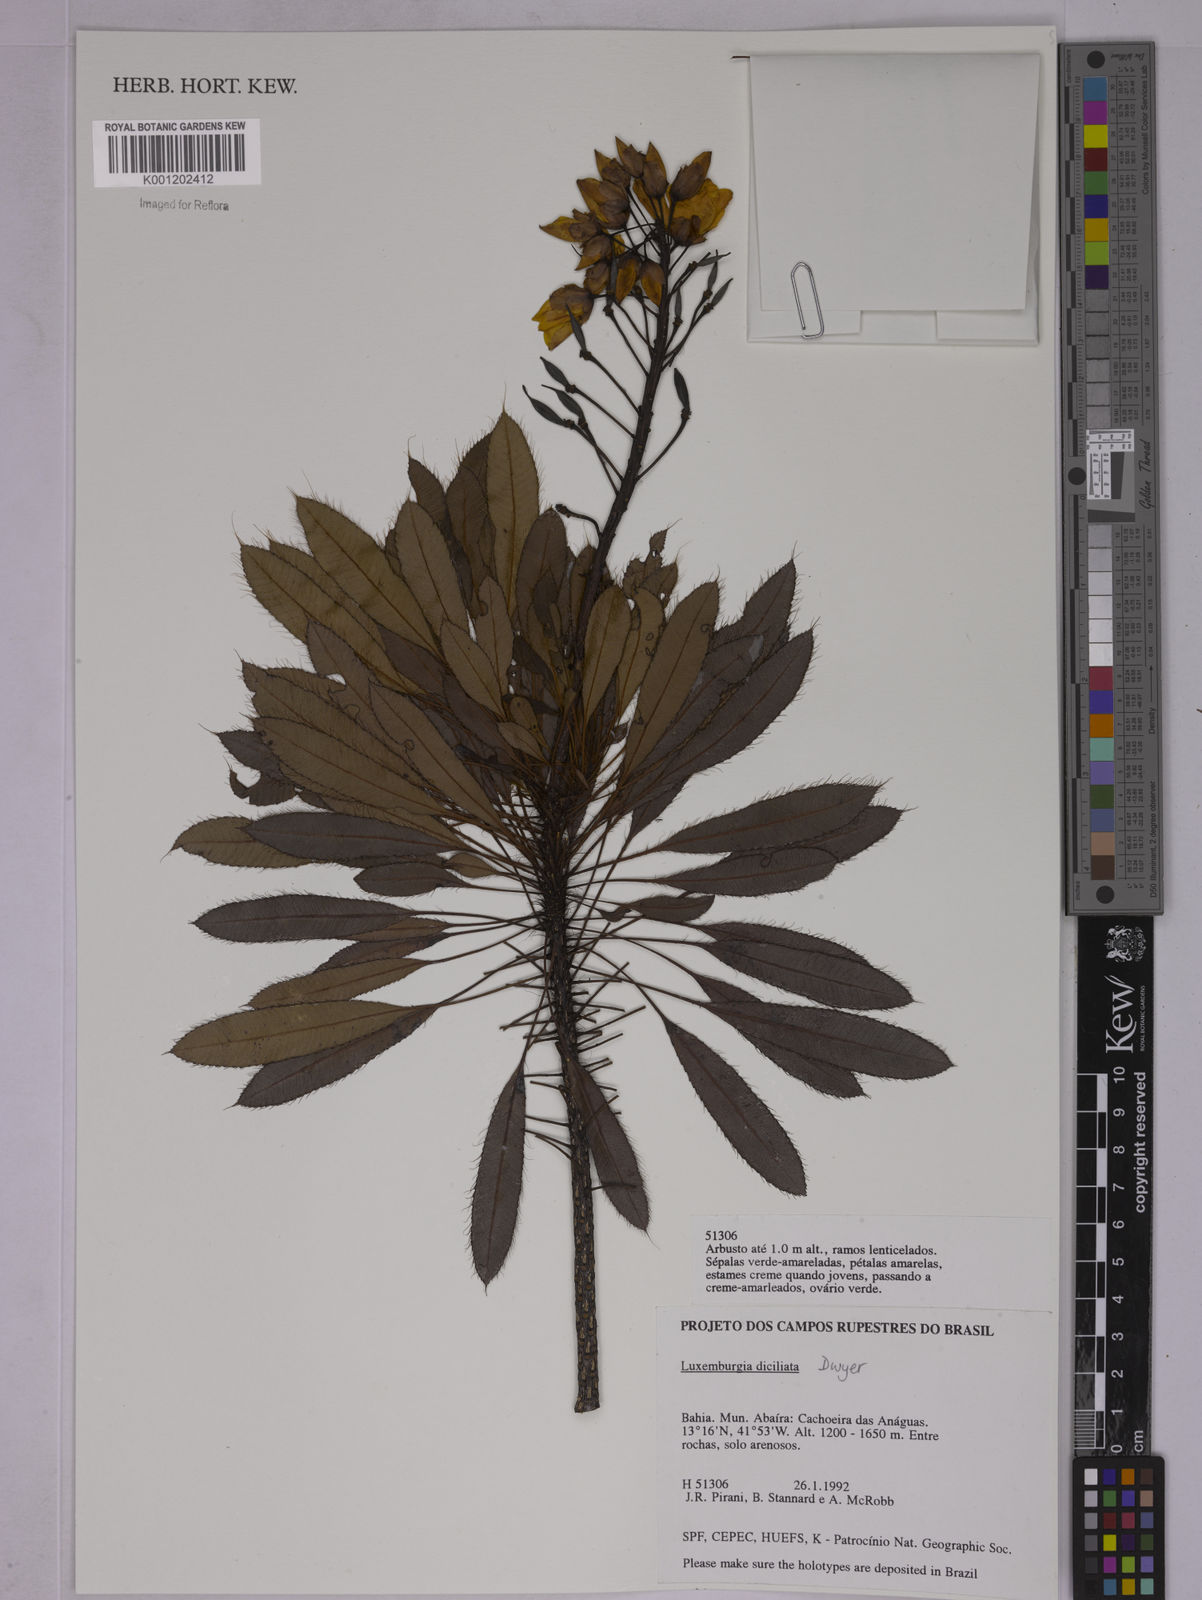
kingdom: Plantae
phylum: Tracheophyta
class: Magnoliopsida
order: Malpighiales
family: Ochnaceae
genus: Luxemburgia
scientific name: Luxemburgia diciliata
